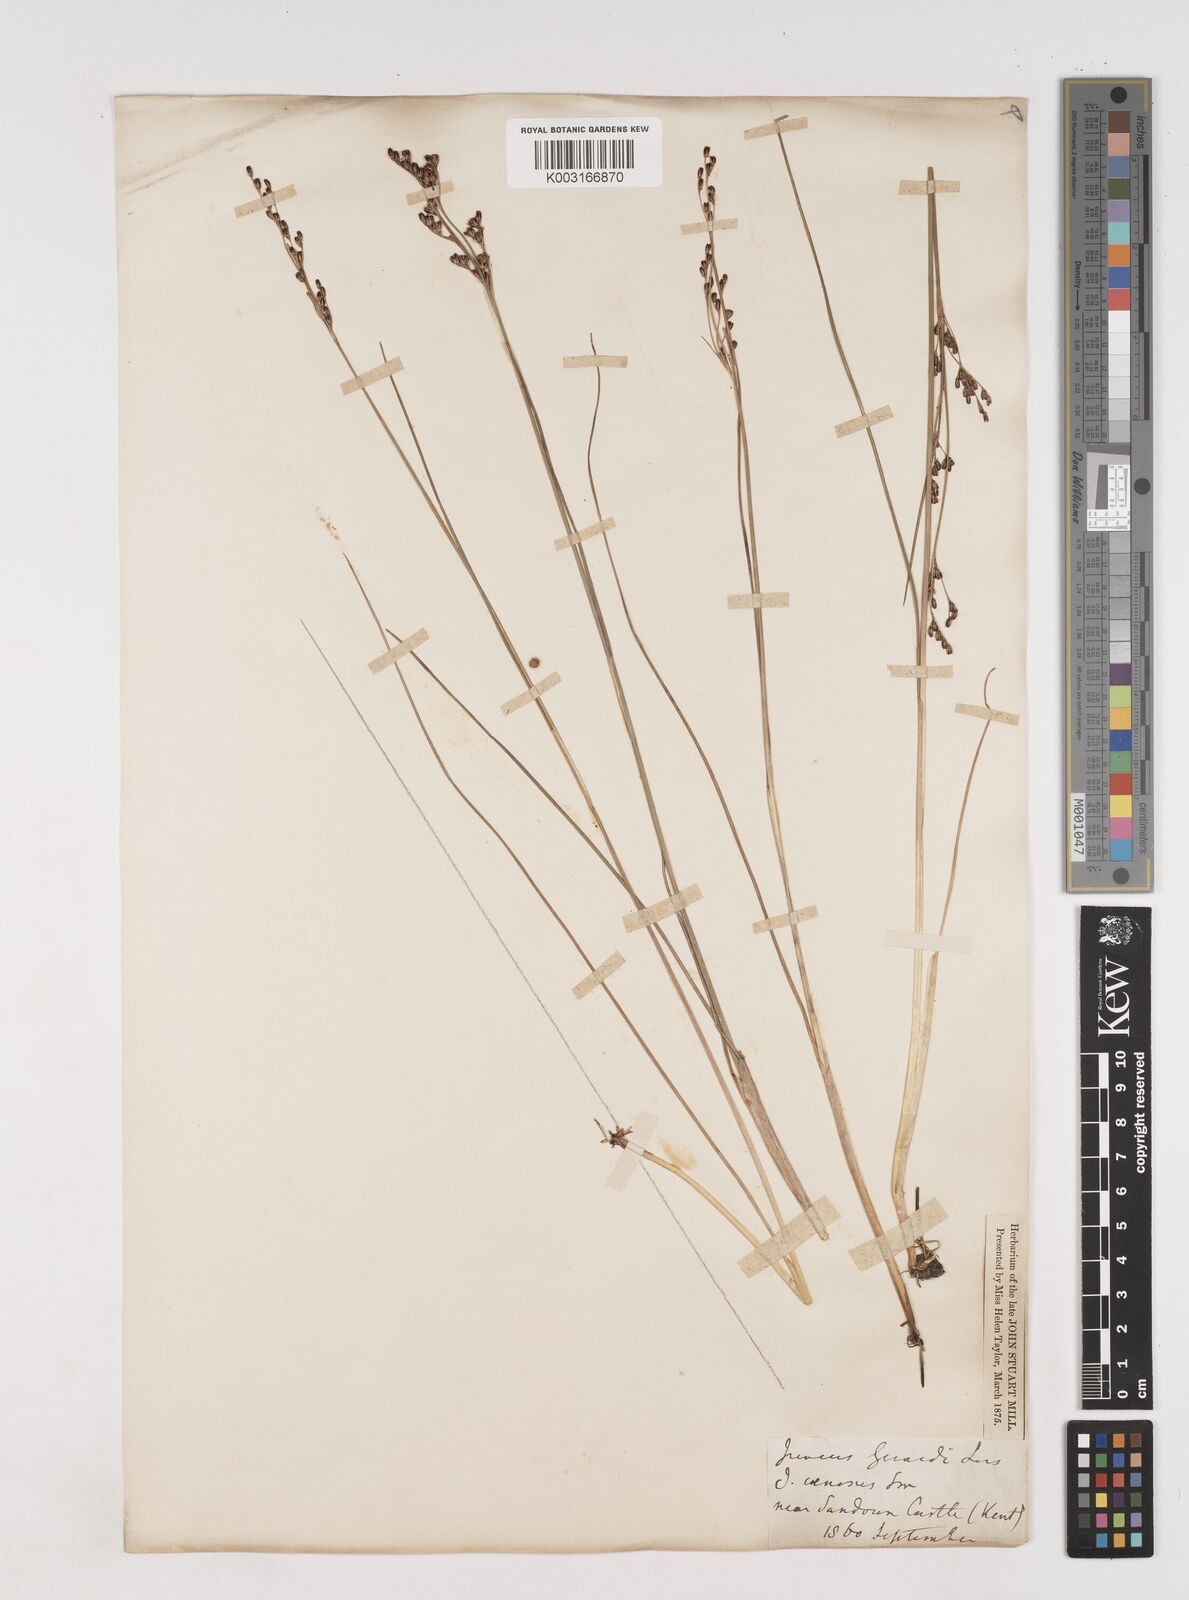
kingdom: Plantae
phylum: Tracheophyta
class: Liliopsida
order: Poales
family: Juncaceae
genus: Juncus
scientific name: Juncus gerardi
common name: Saltmarsh rush
